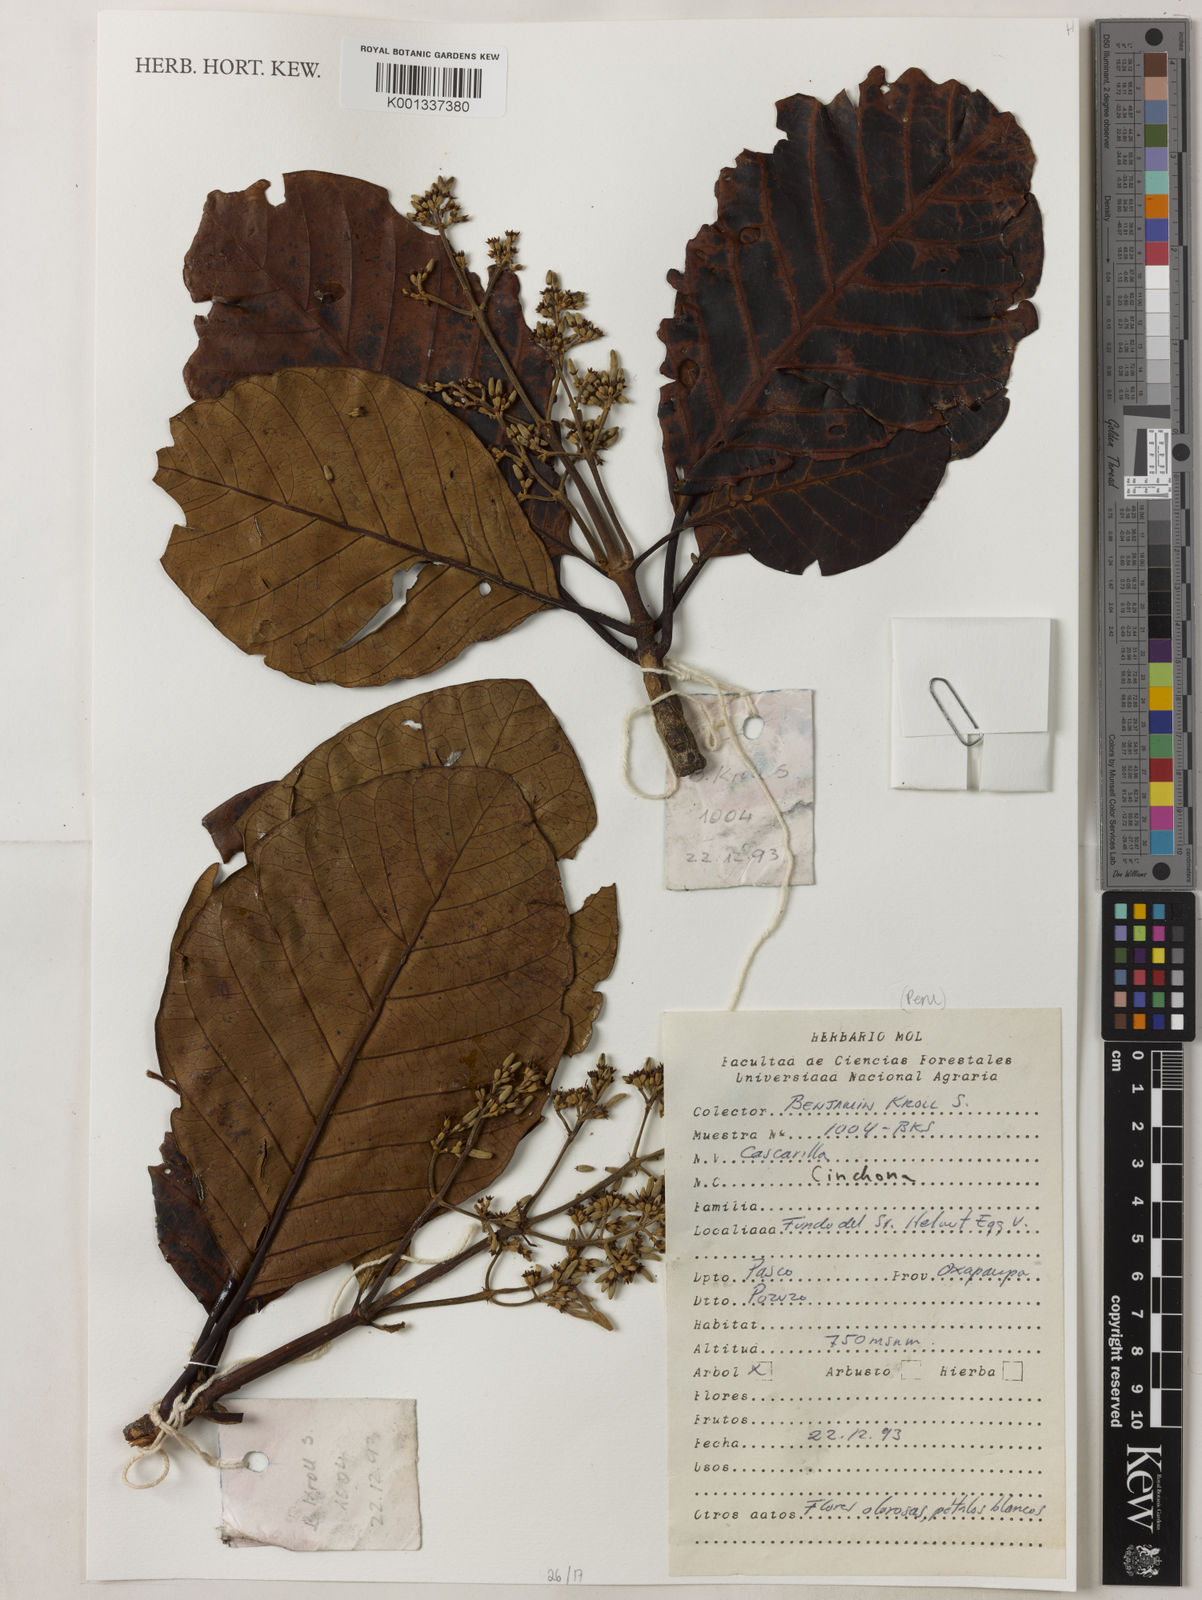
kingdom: Plantae
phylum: Tracheophyta
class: Magnoliopsida
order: Gentianales
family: Rubiaceae
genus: Cinchona
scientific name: Cinchona
